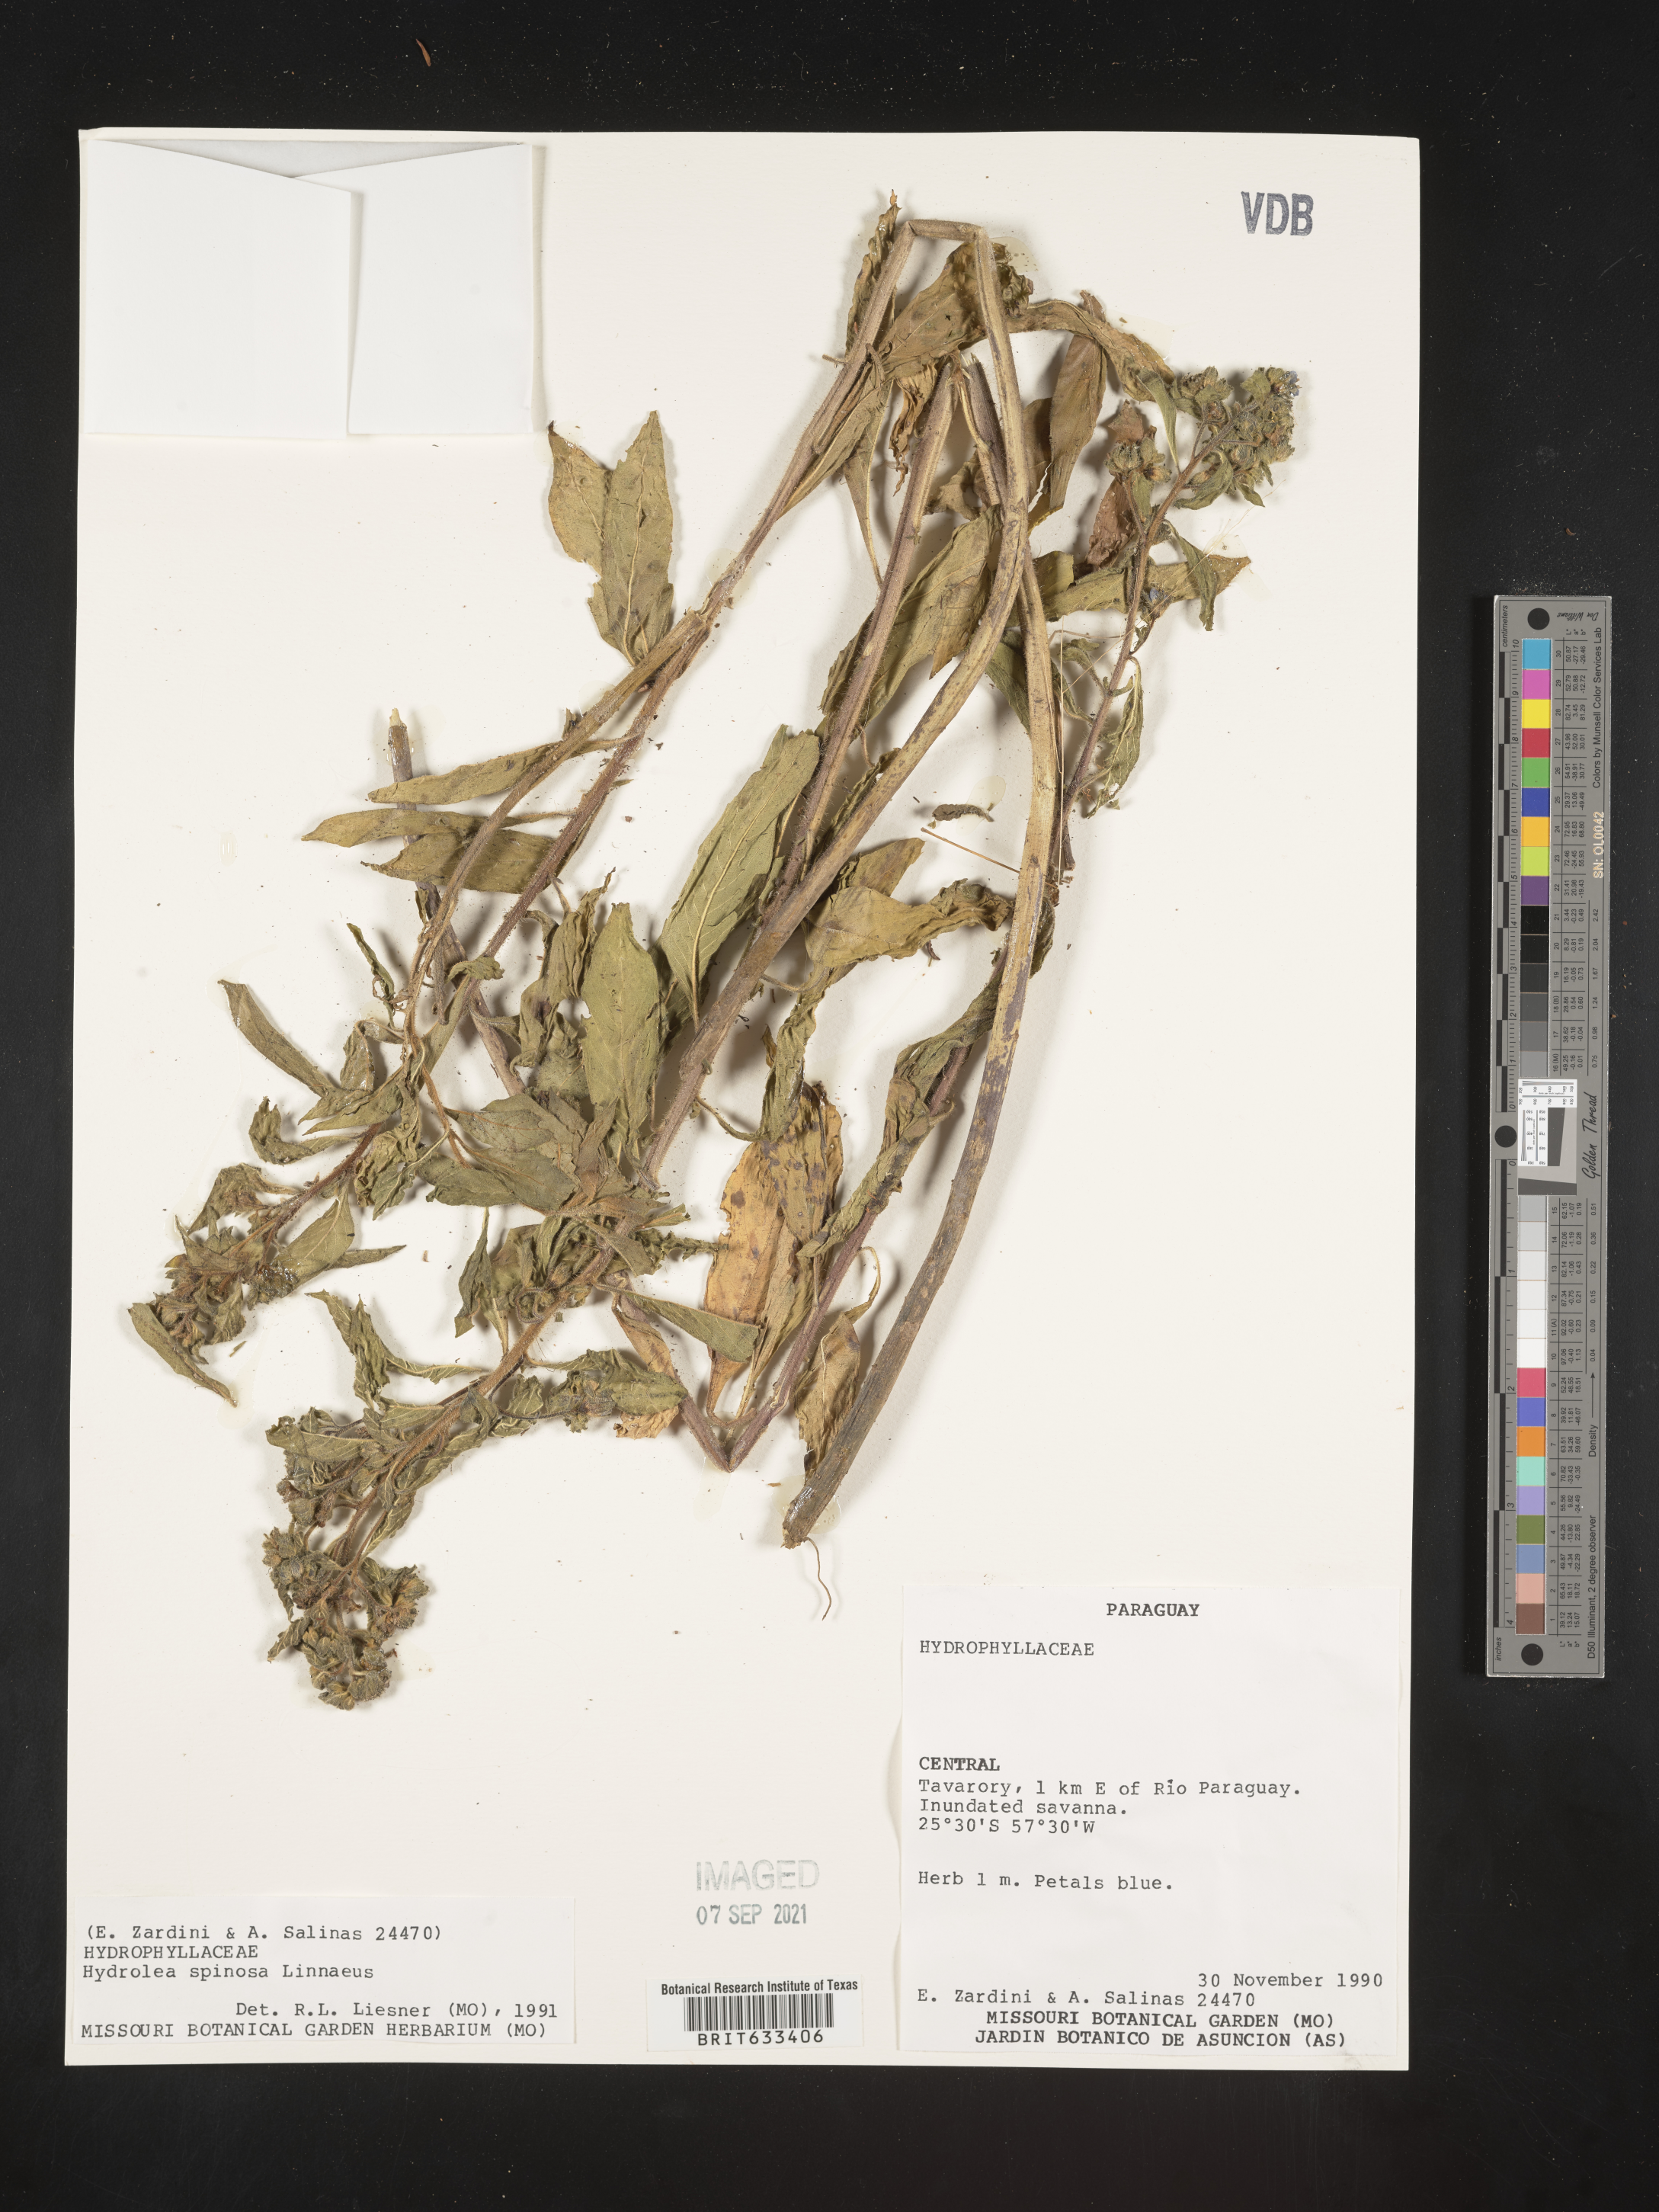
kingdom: Plantae
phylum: Tracheophyta
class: Magnoliopsida
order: Solanales
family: Hydroleaceae
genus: Hydrolea
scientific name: Hydrolea
